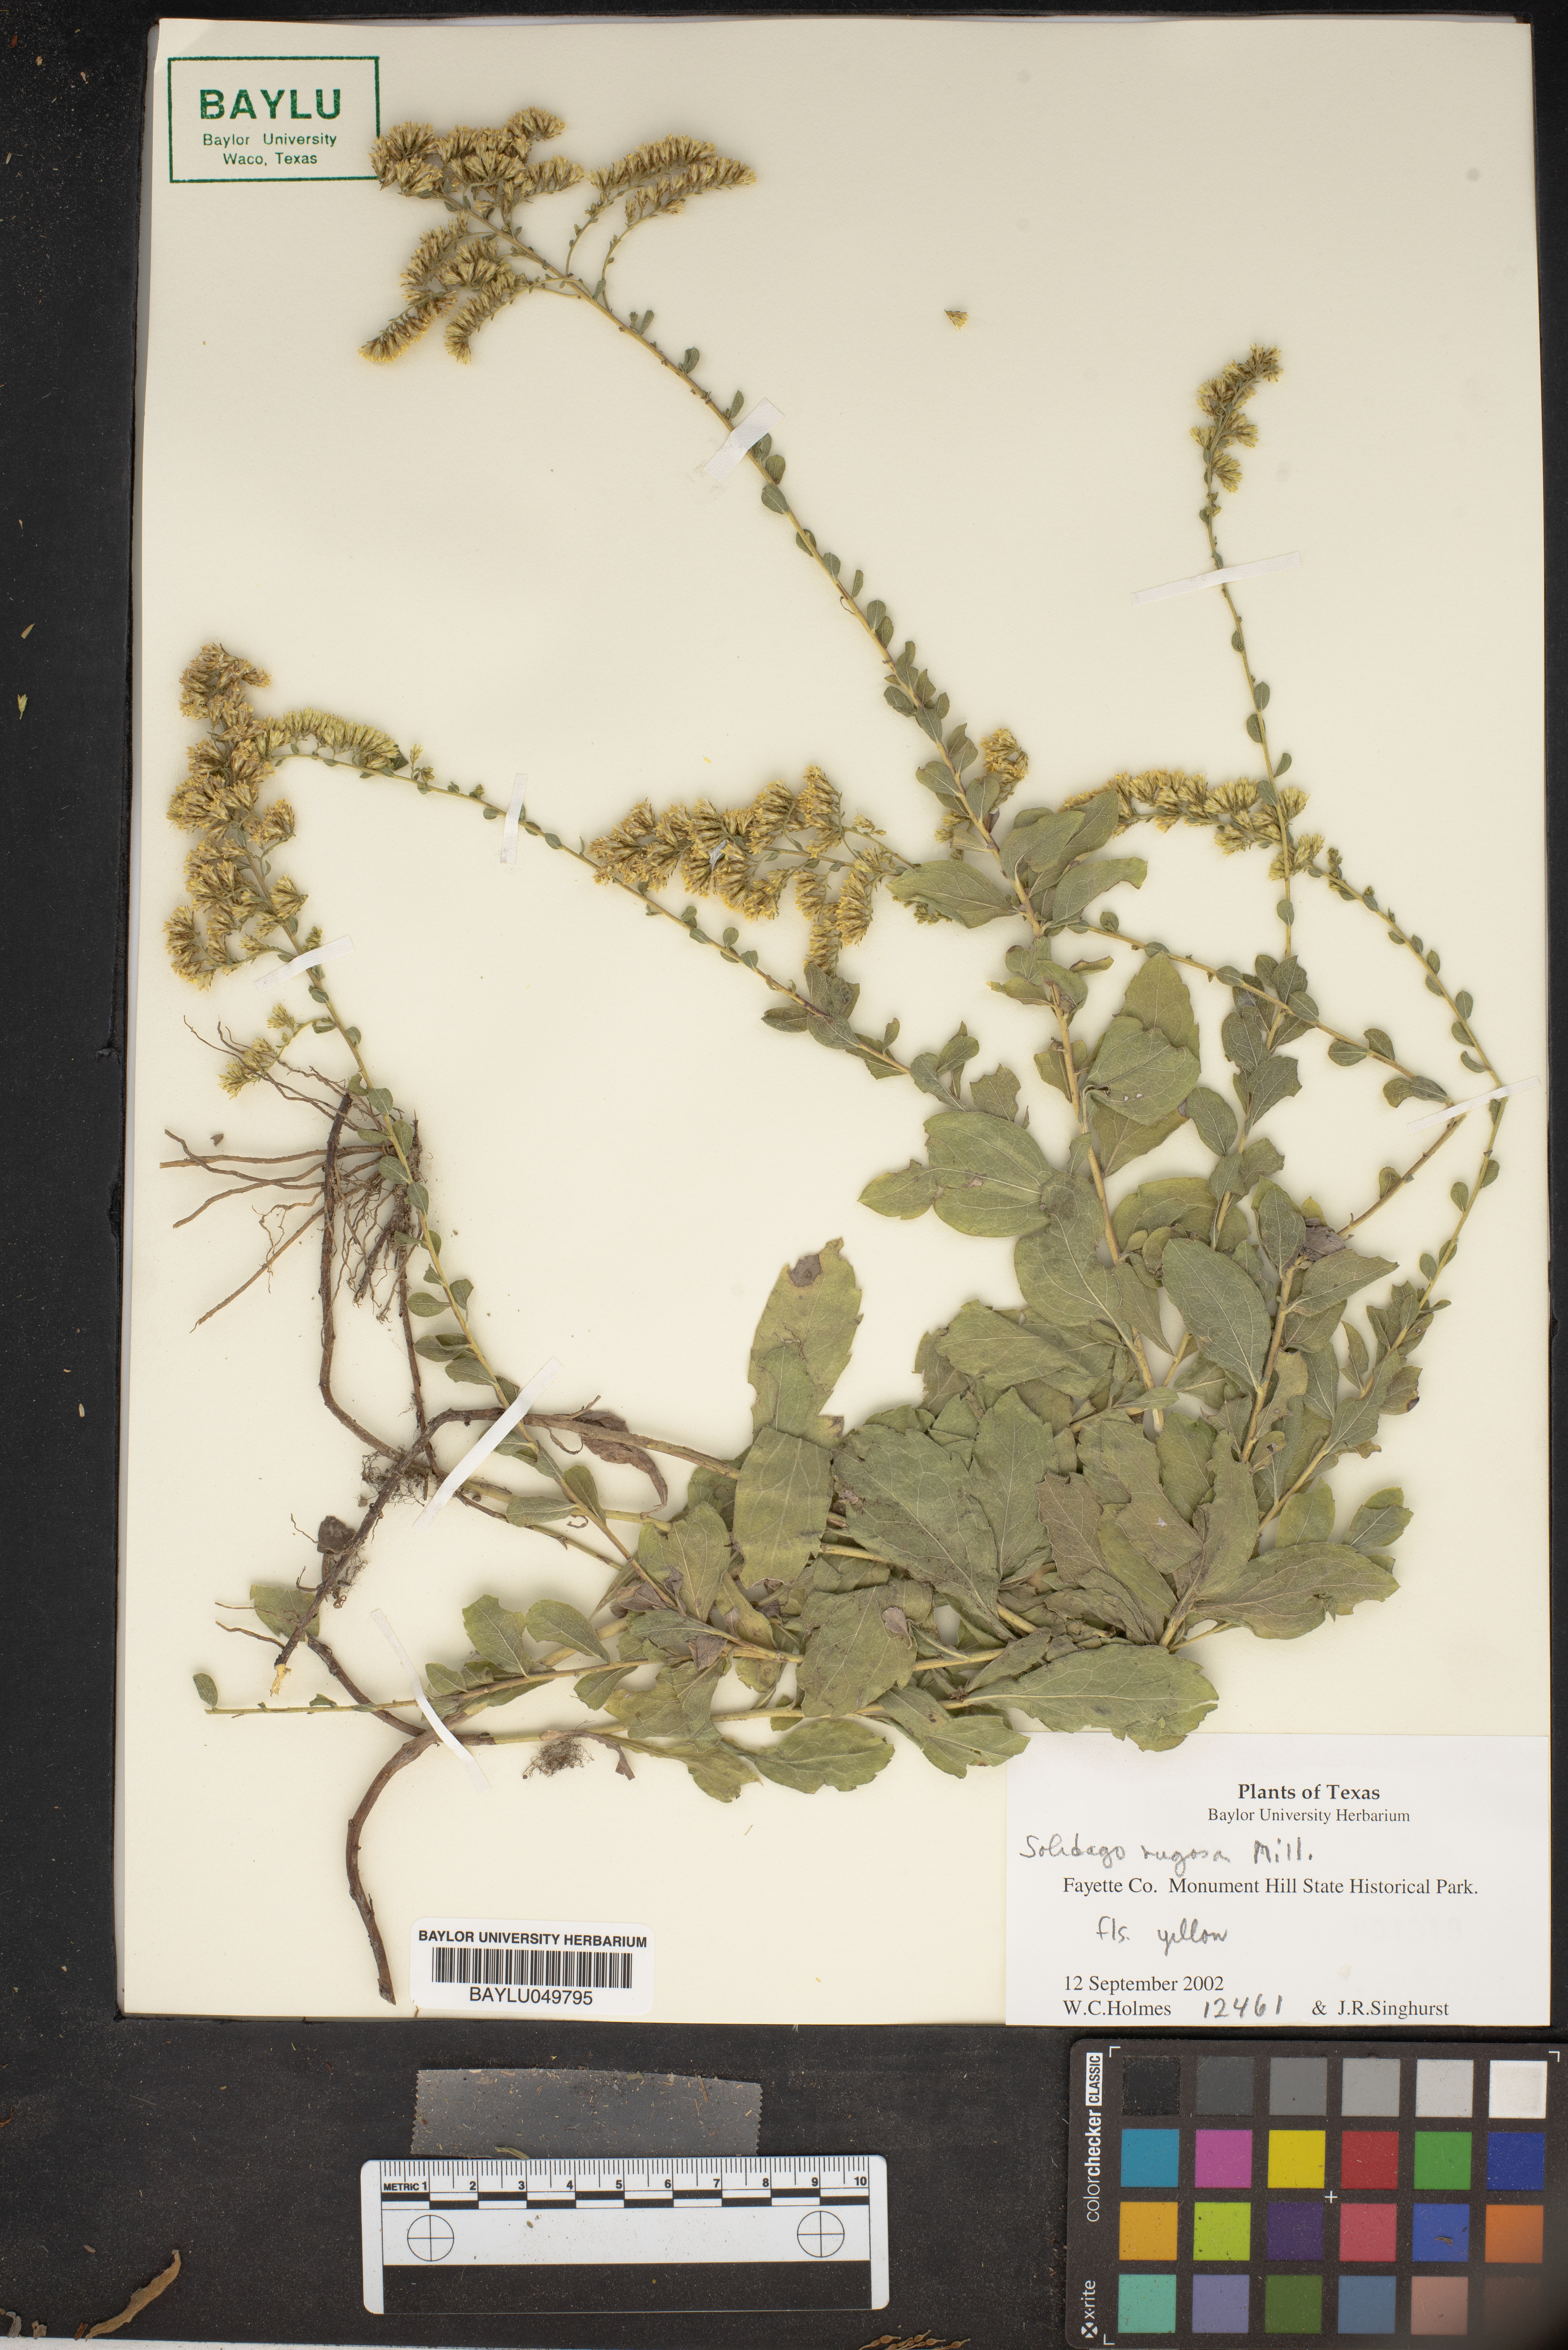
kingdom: Plantae
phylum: Tracheophyta
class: Magnoliopsida
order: Asterales
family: Asteraceae
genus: Solidago
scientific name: Solidago rugosa
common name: Rough-stemmed goldenrod
